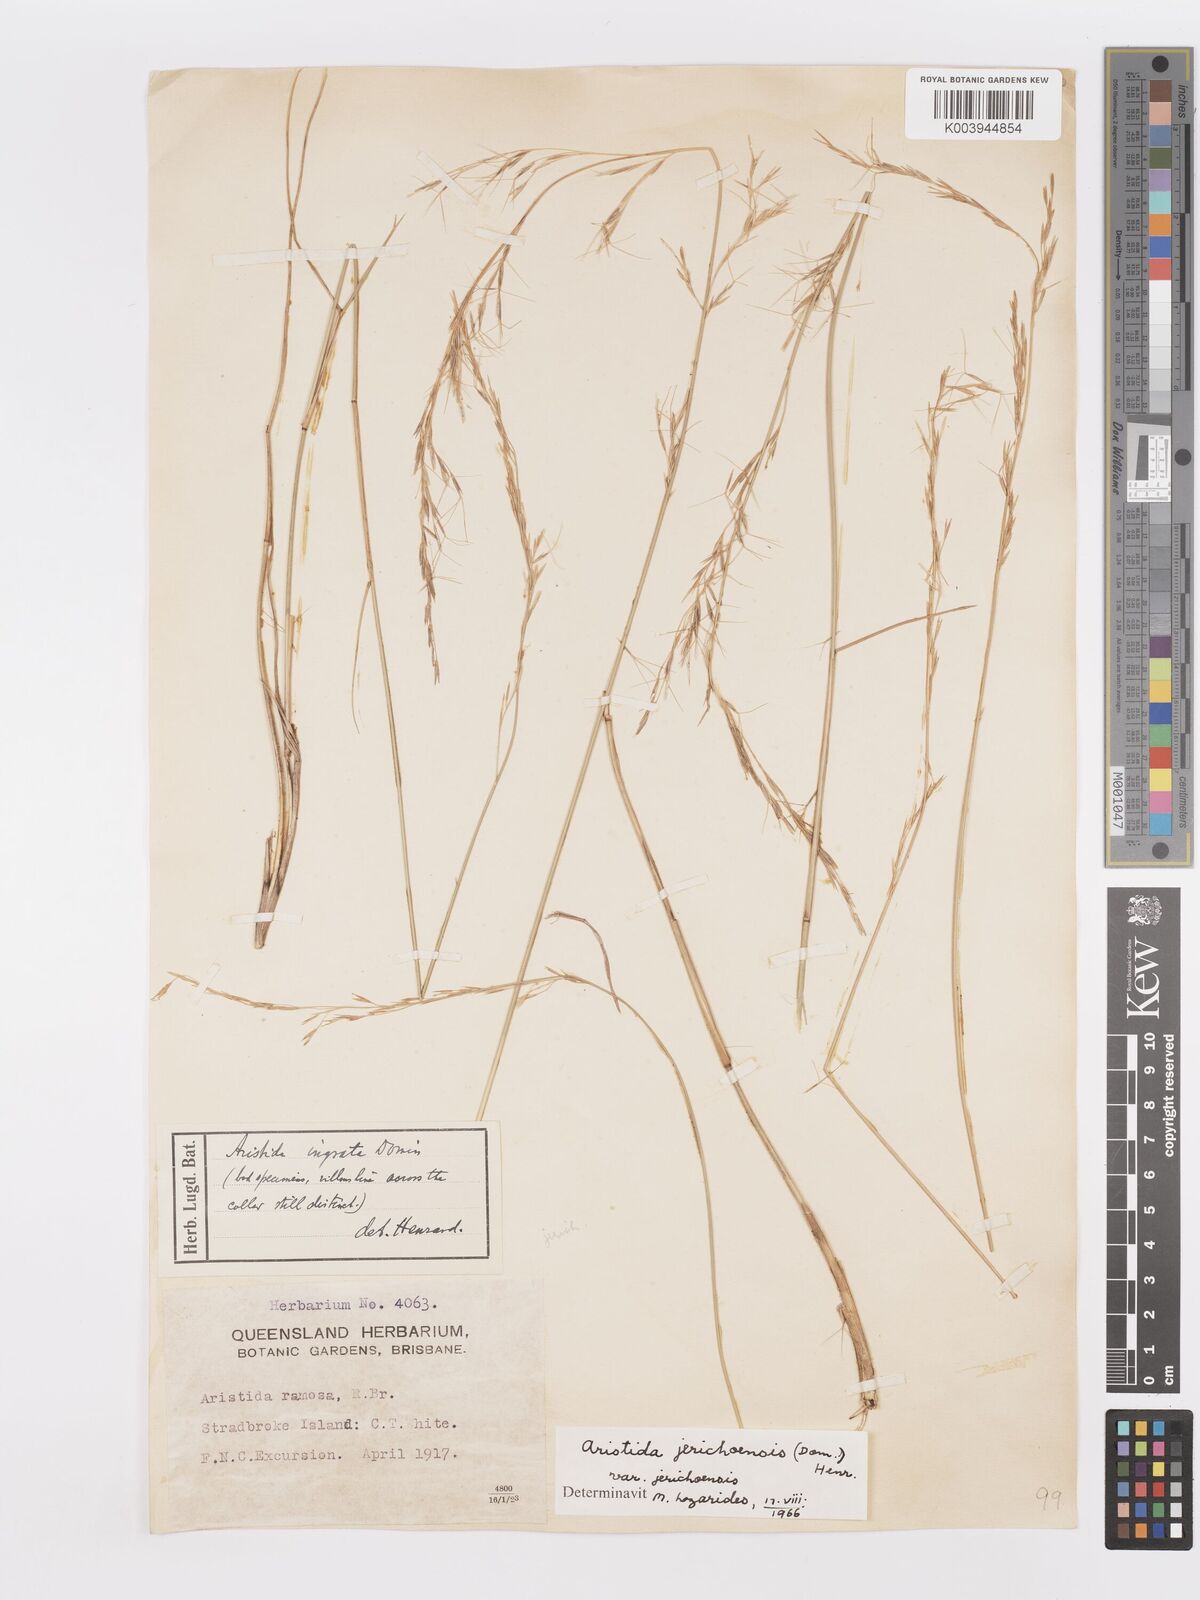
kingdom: Plantae
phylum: Tracheophyta
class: Liliopsida
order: Poales
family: Poaceae
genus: Aristida
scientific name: Aristida jerichoensis
